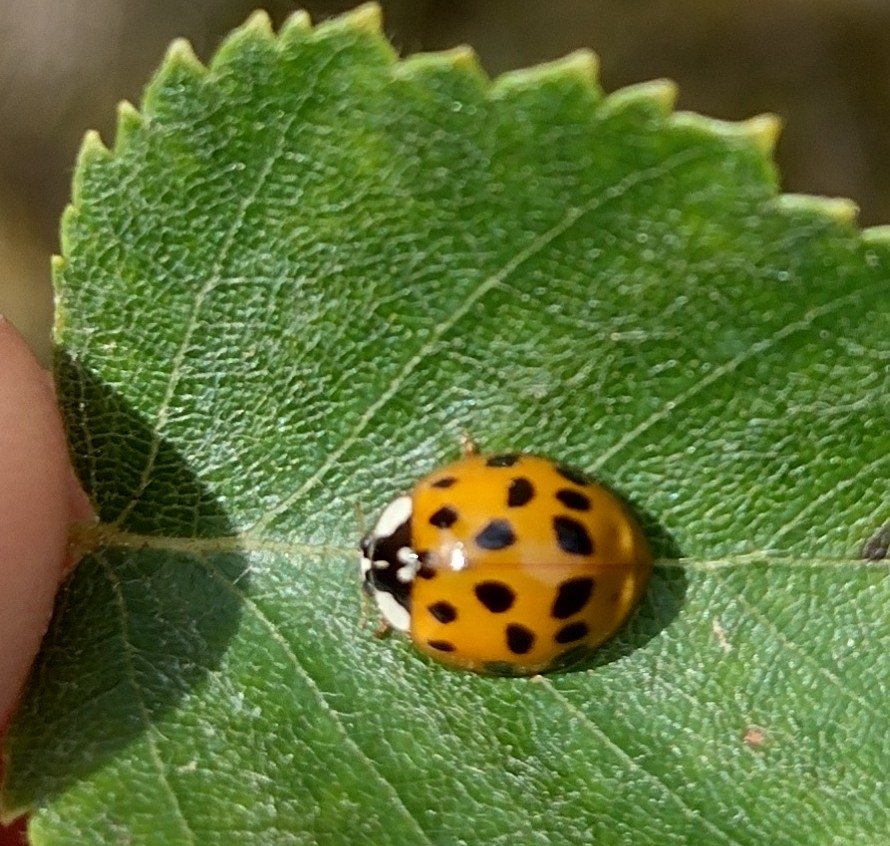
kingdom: Animalia
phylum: Arthropoda
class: Insecta
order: Coleoptera
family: Coccinellidae
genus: Harmonia
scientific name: Harmonia axyridis
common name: Harlekinmariehøne
